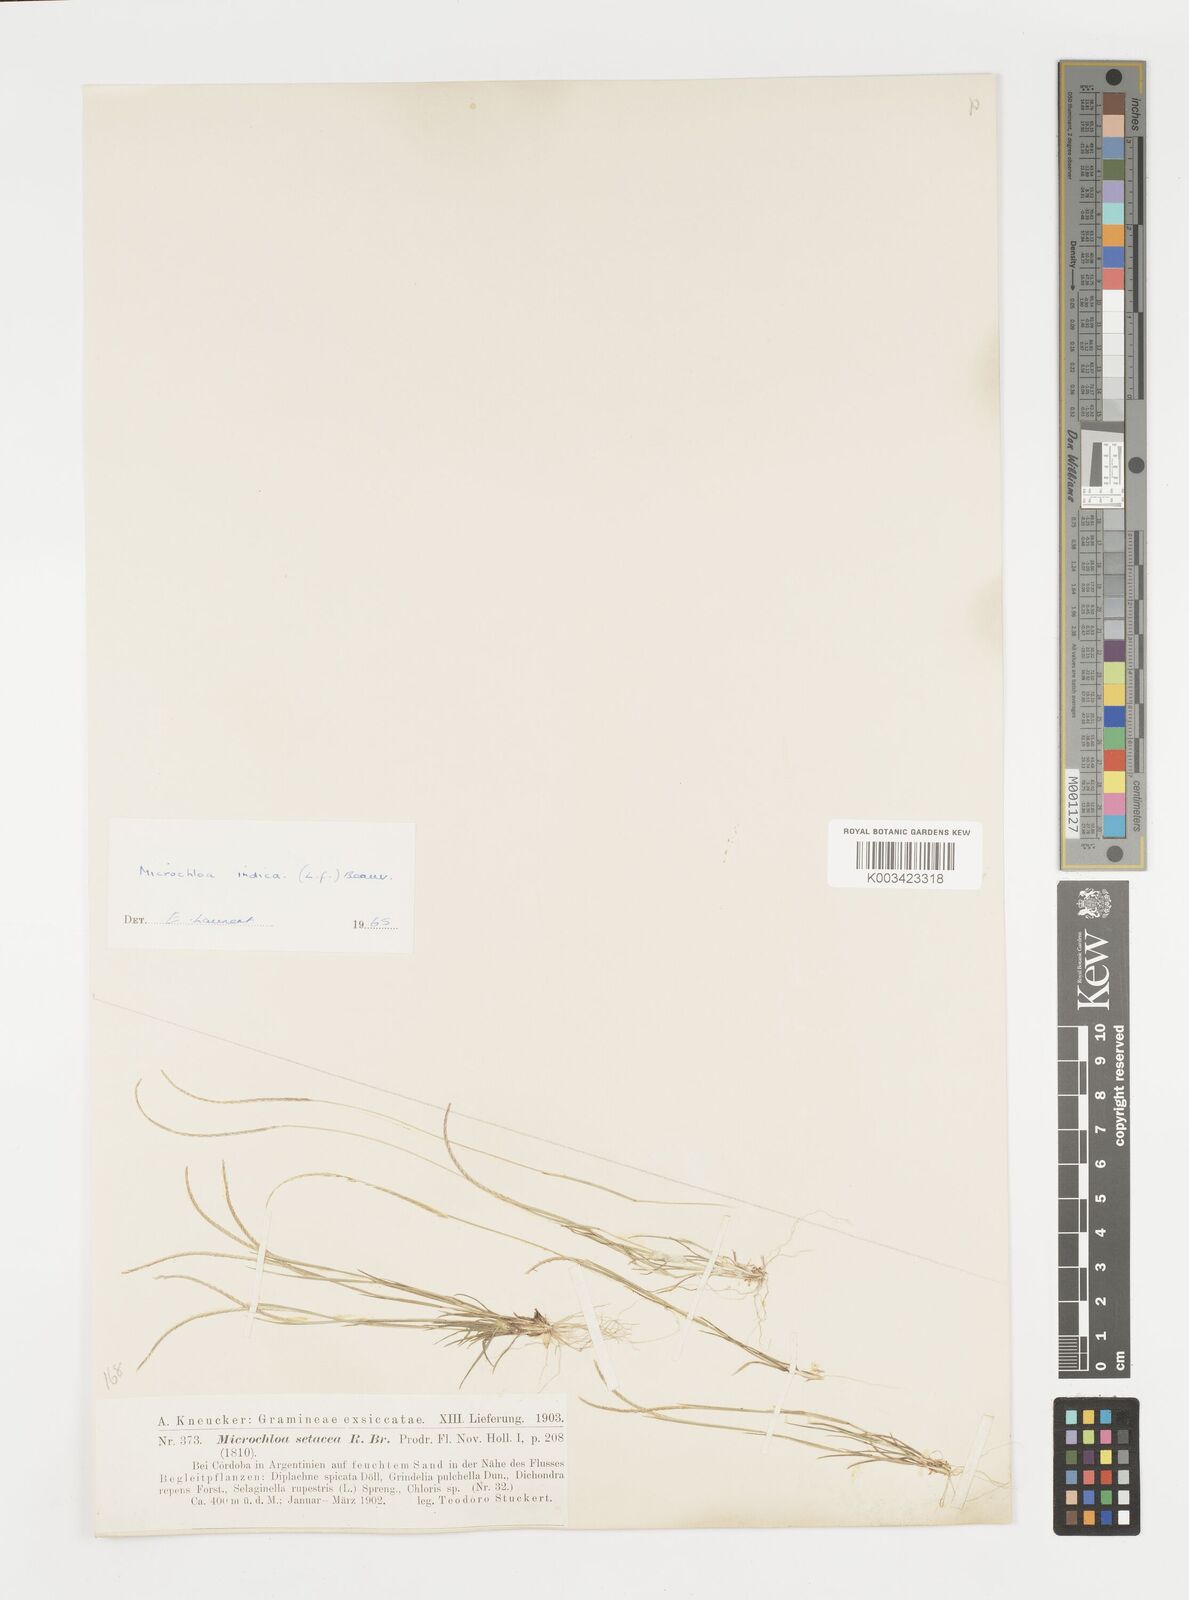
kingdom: Plantae
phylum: Tracheophyta
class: Liliopsida
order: Poales
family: Poaceae
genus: Microchloa
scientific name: Microchloa indica
